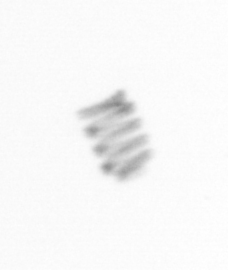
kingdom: Chromista
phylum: Ochrophyta
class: Bacillariophyceae
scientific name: Bacillariophyceae
